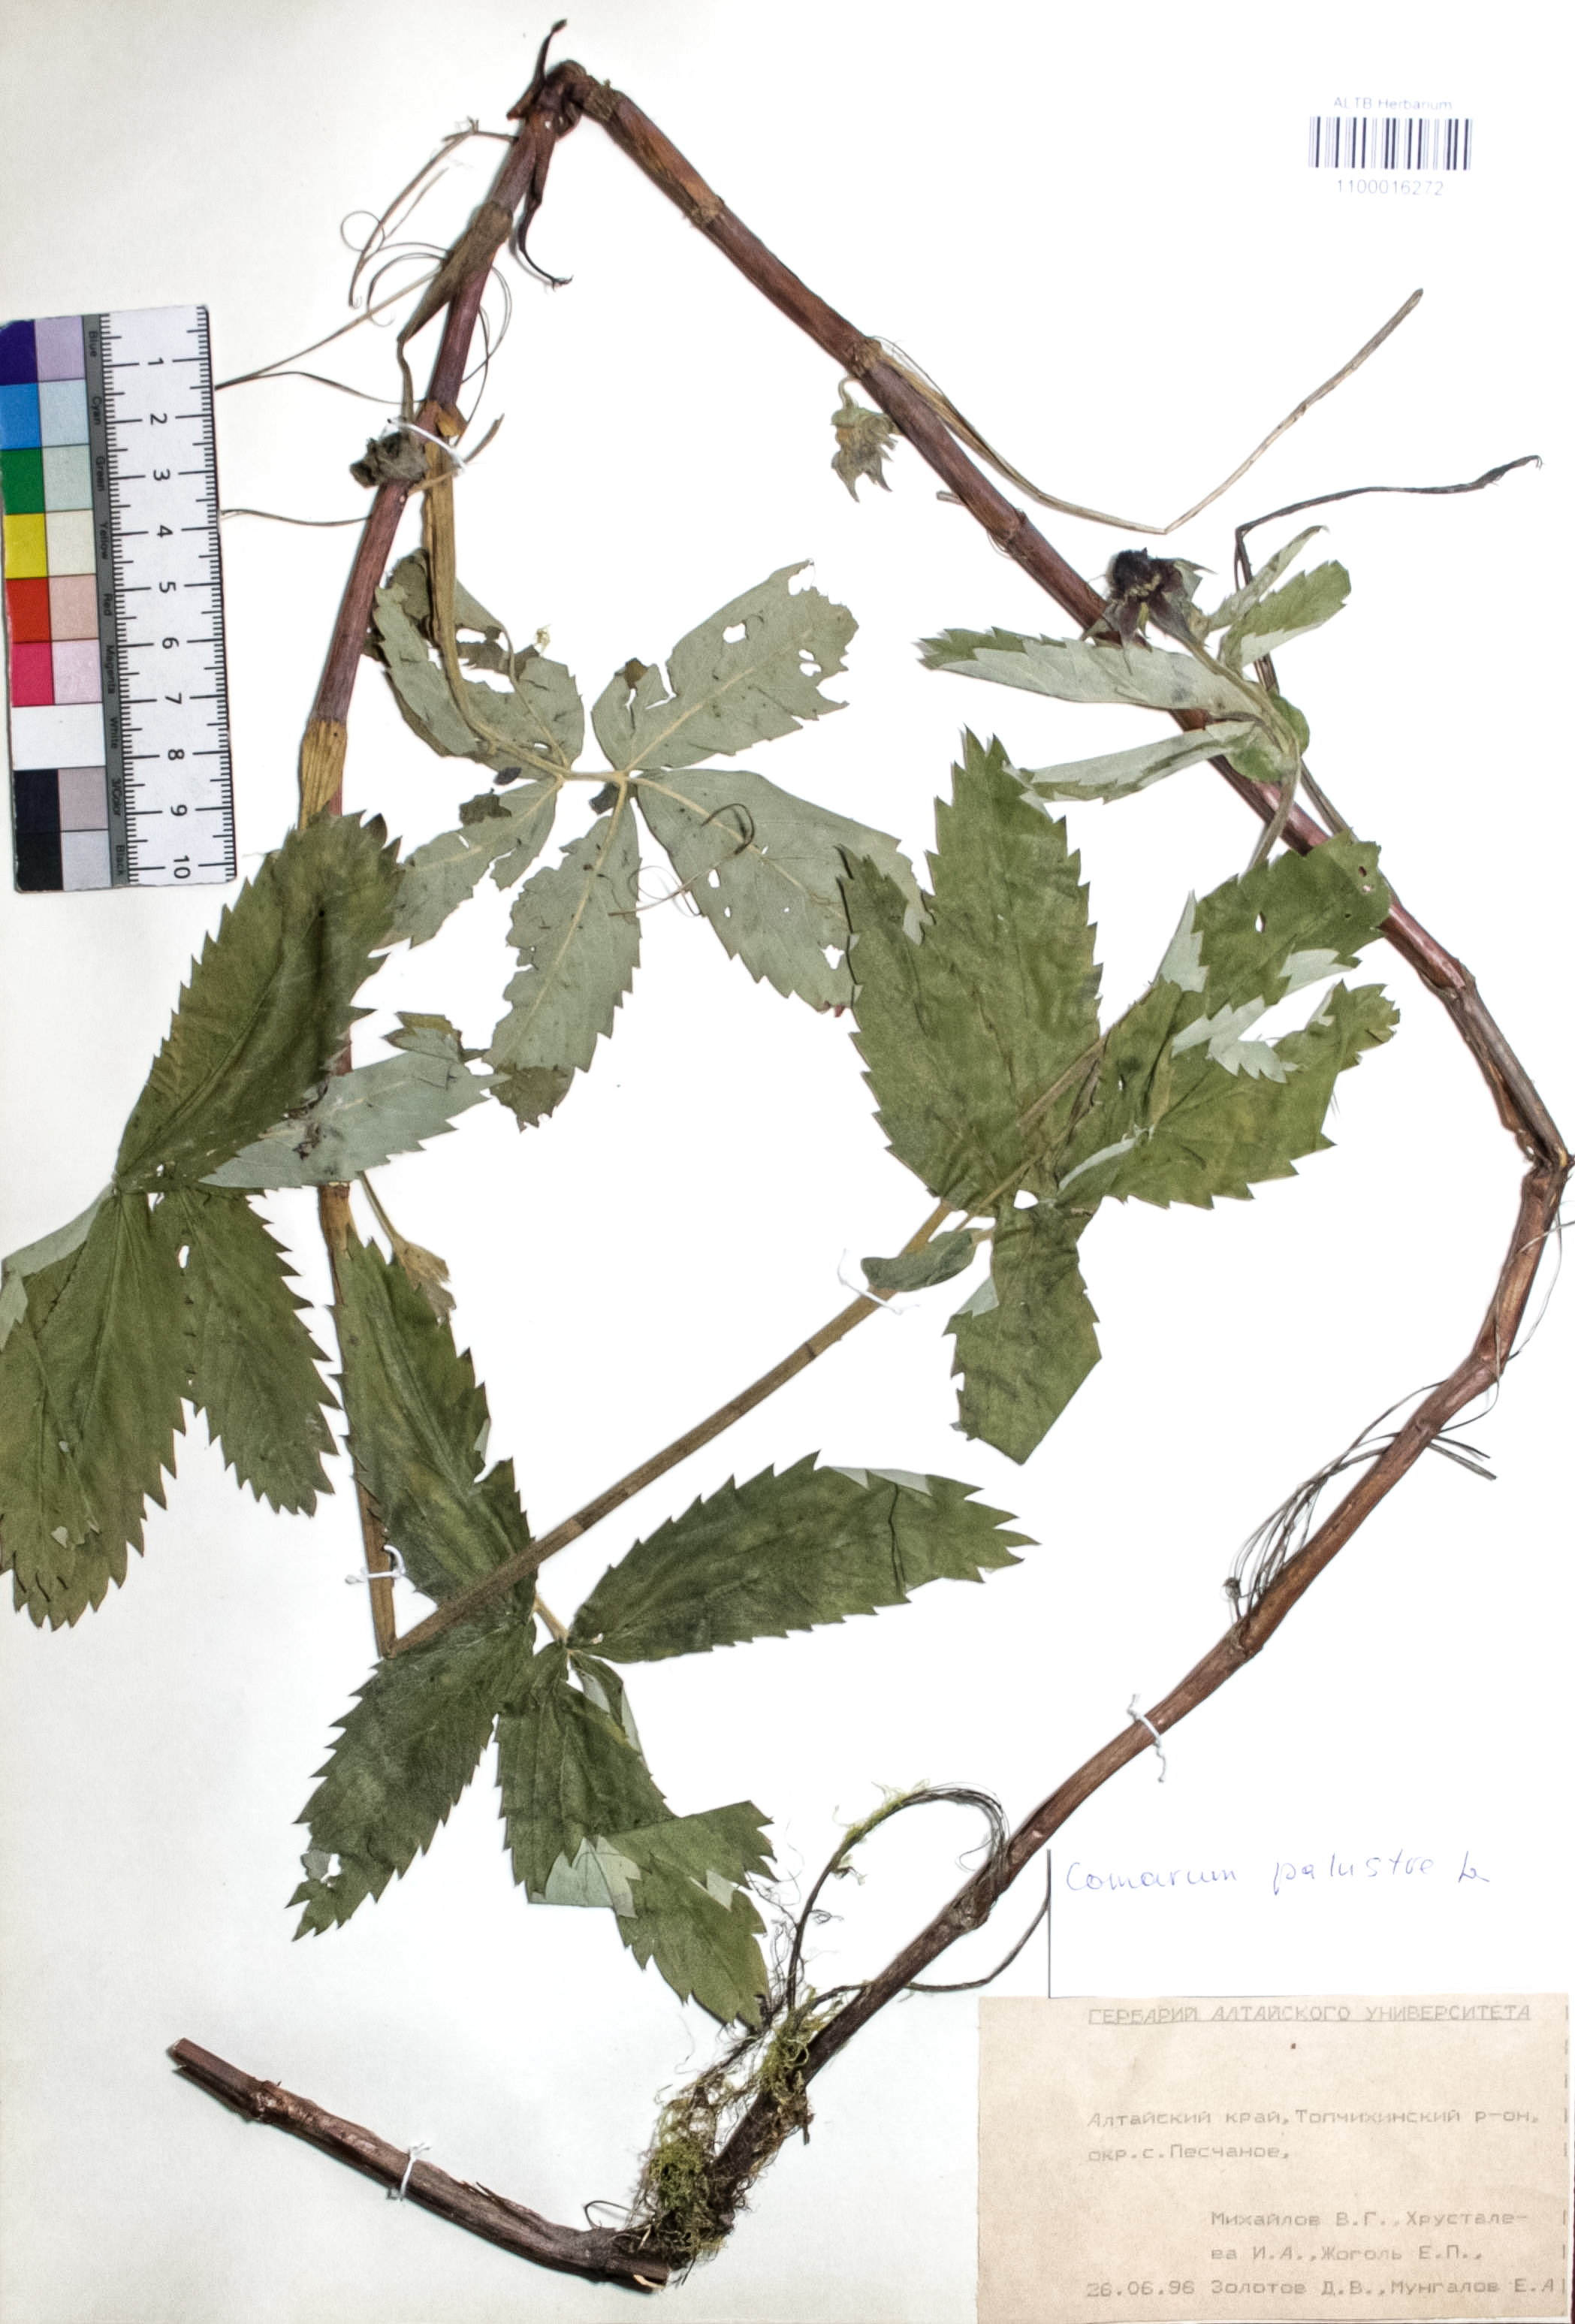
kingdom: Plantae
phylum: Tracheophyta
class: Magnoliopsida
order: Rosales
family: Rosaceae
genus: Comarum
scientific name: Comarum palustre
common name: Marsh cinquefoil
